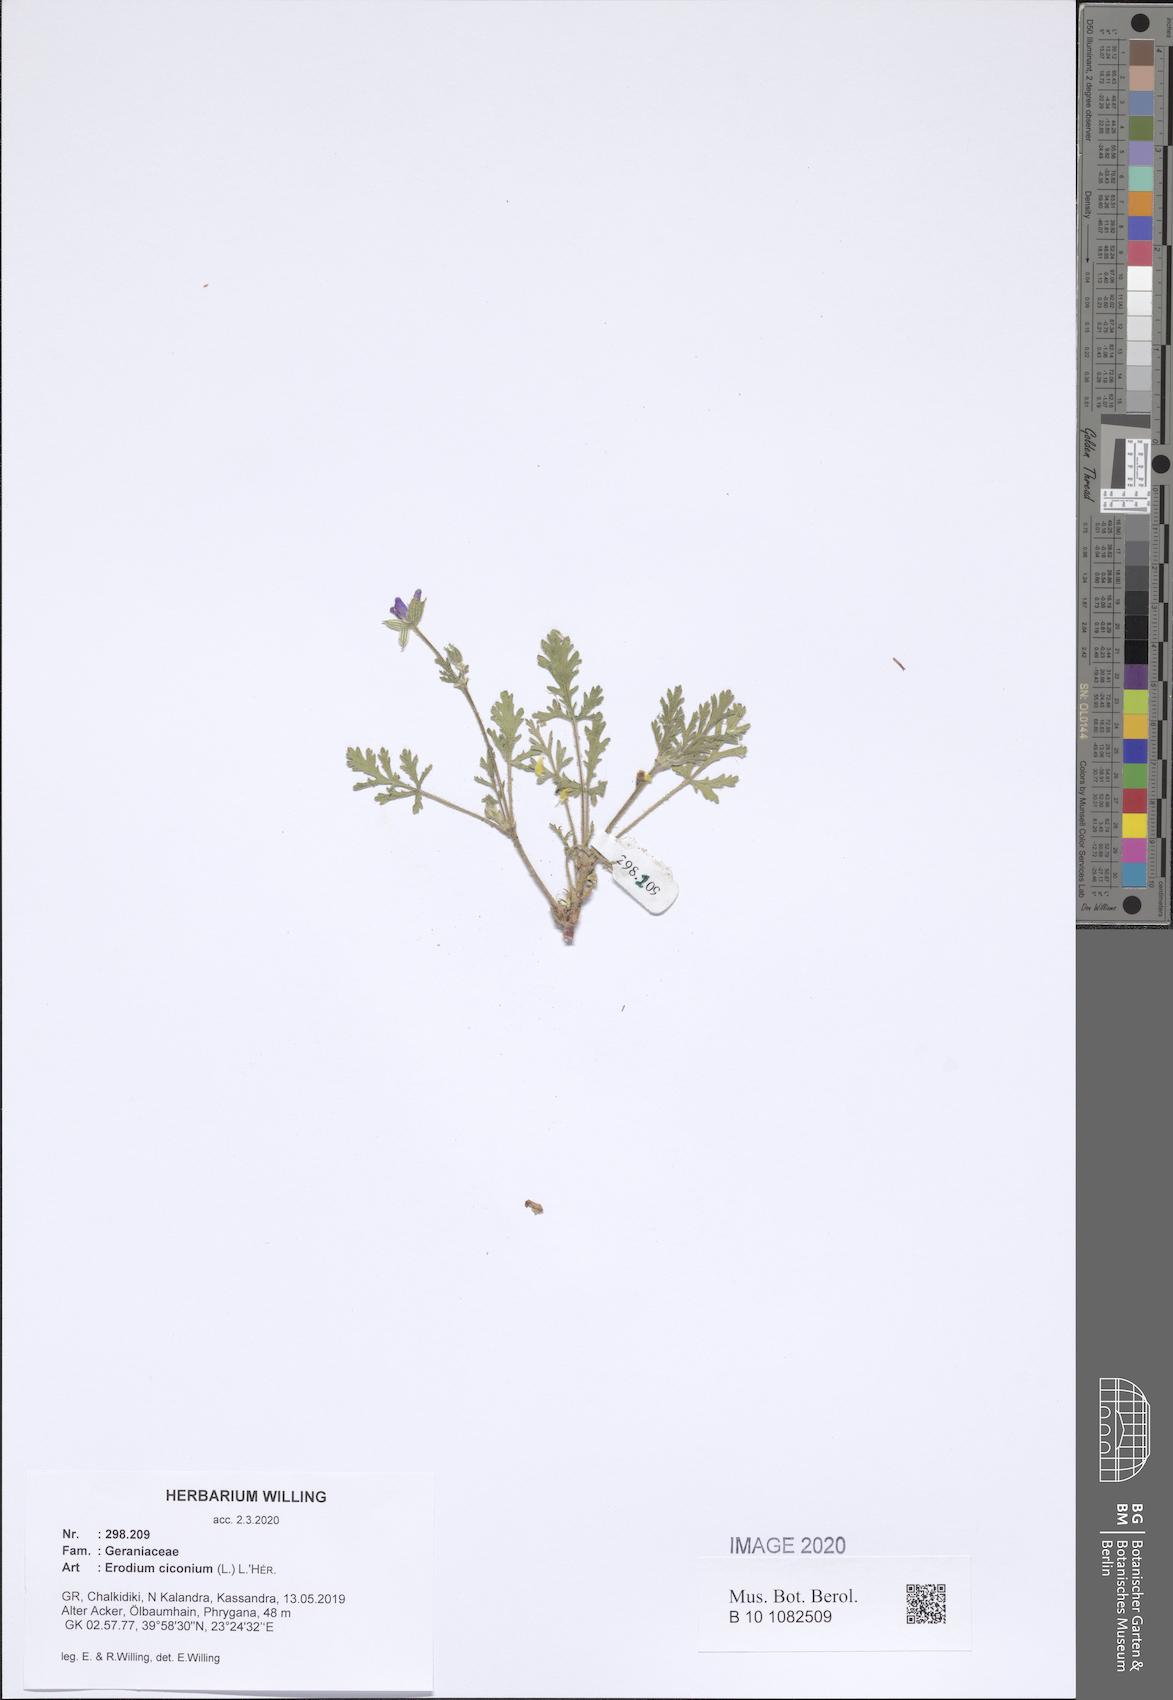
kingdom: Plantae
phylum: Tracheophyta
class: Magnoliopsida
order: Geraniales
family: Geraniaceae
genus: Erodium
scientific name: Erodium ciconium
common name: Common stork's bill
